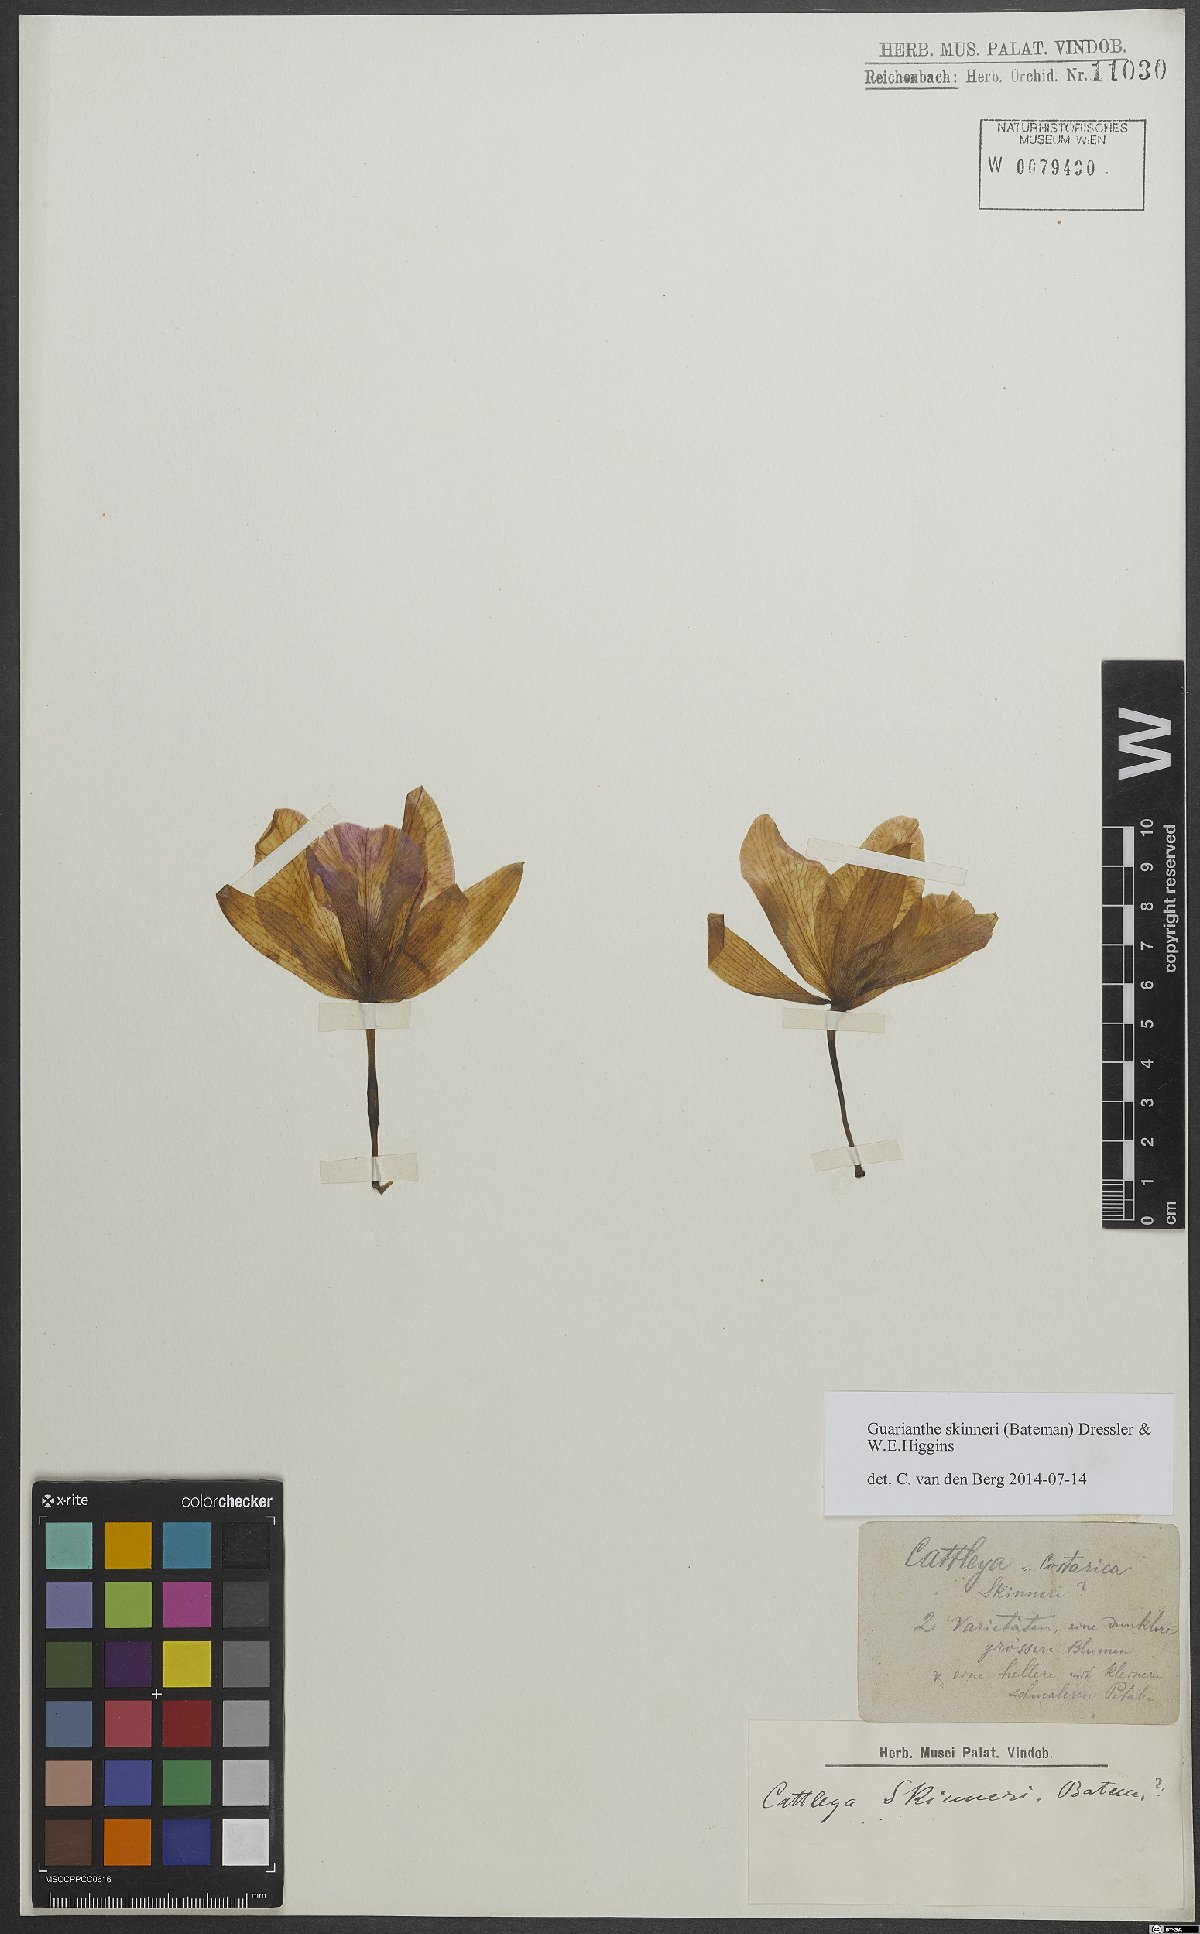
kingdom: Plantae
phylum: Tracheophyta
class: Liliopsida
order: Asparagales
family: Orchidaceae
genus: Guarianthe
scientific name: Guarianthe skinneri
